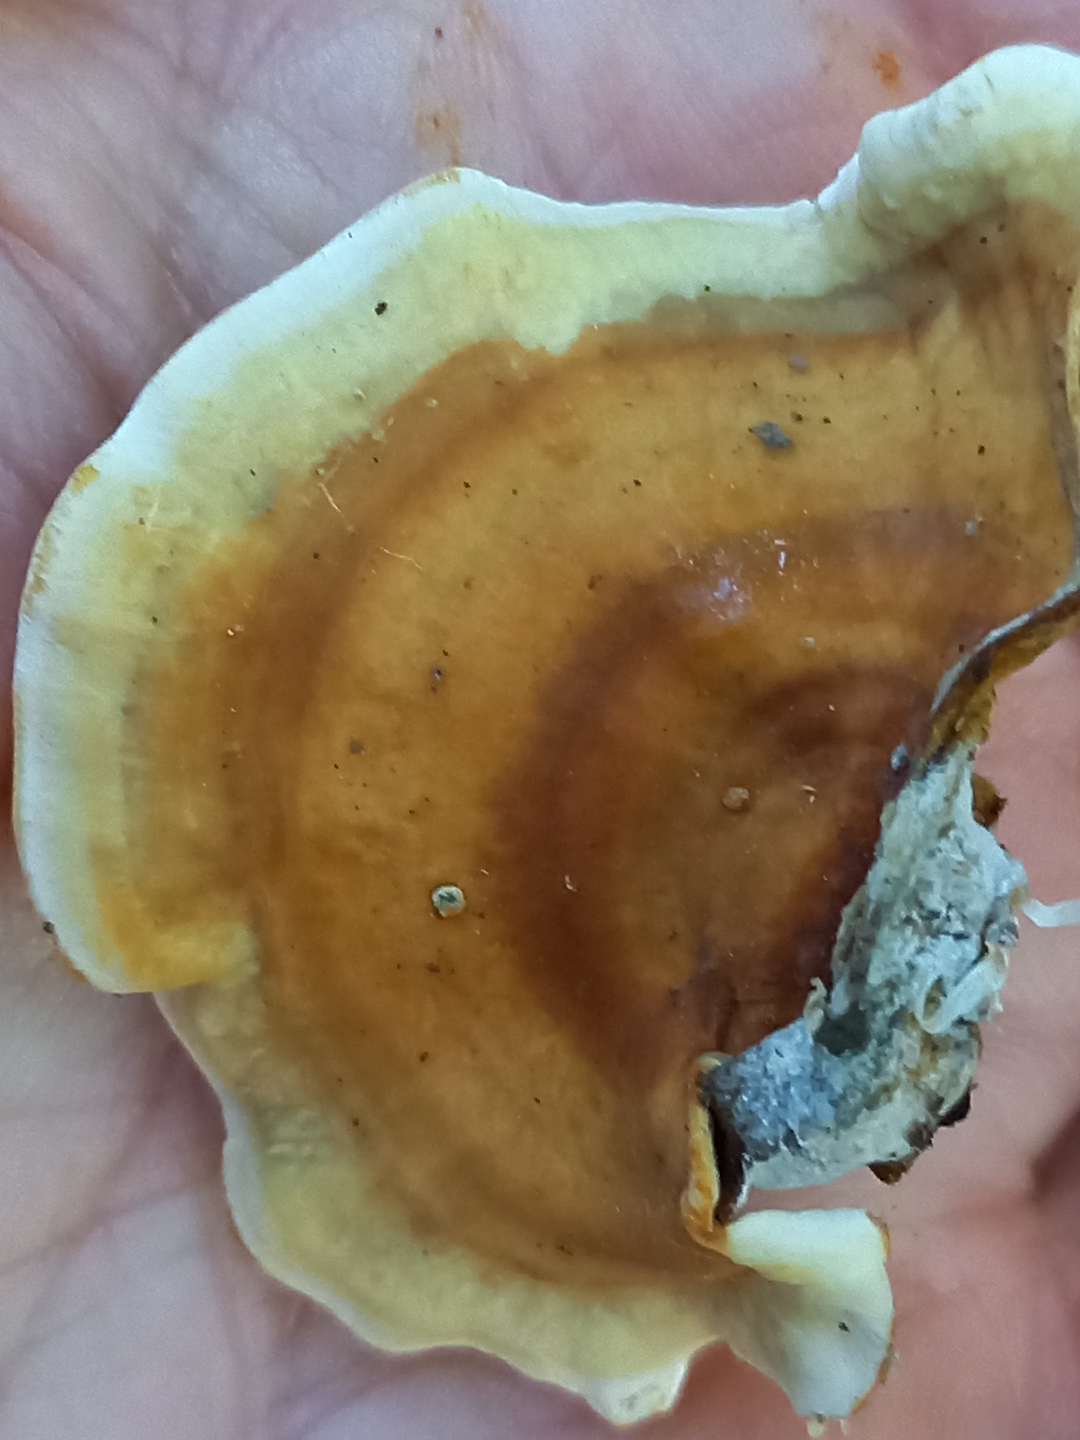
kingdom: Fungi
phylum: Basidiomycota
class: Agaricomycetes
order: Russulales
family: Stereaceae
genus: Stereum
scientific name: Stereum hirsutum
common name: håret lædersvamp
